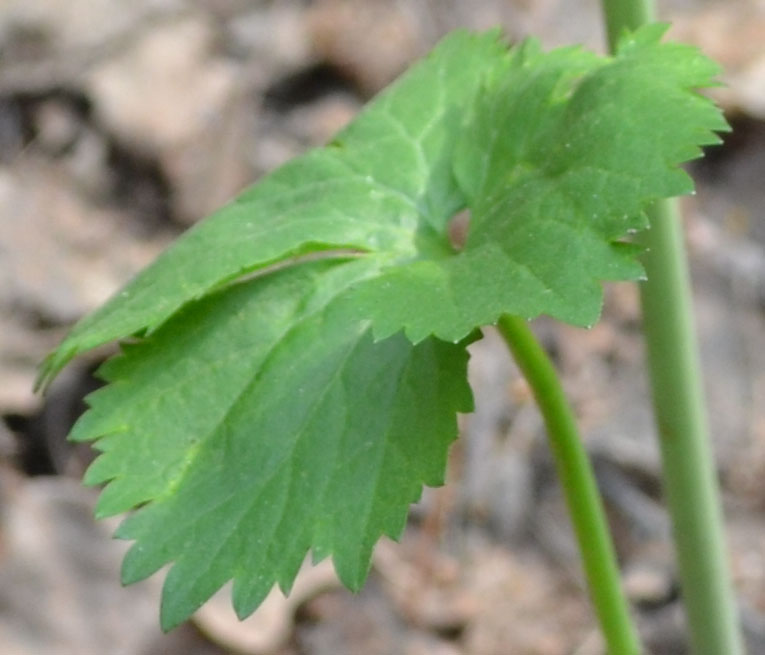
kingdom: Plantae
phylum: Tracheophyta
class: Magnoliopsida
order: Ranunculales
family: Ranunculaceae
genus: Ranunculus
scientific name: Ranunculus cassubicus
